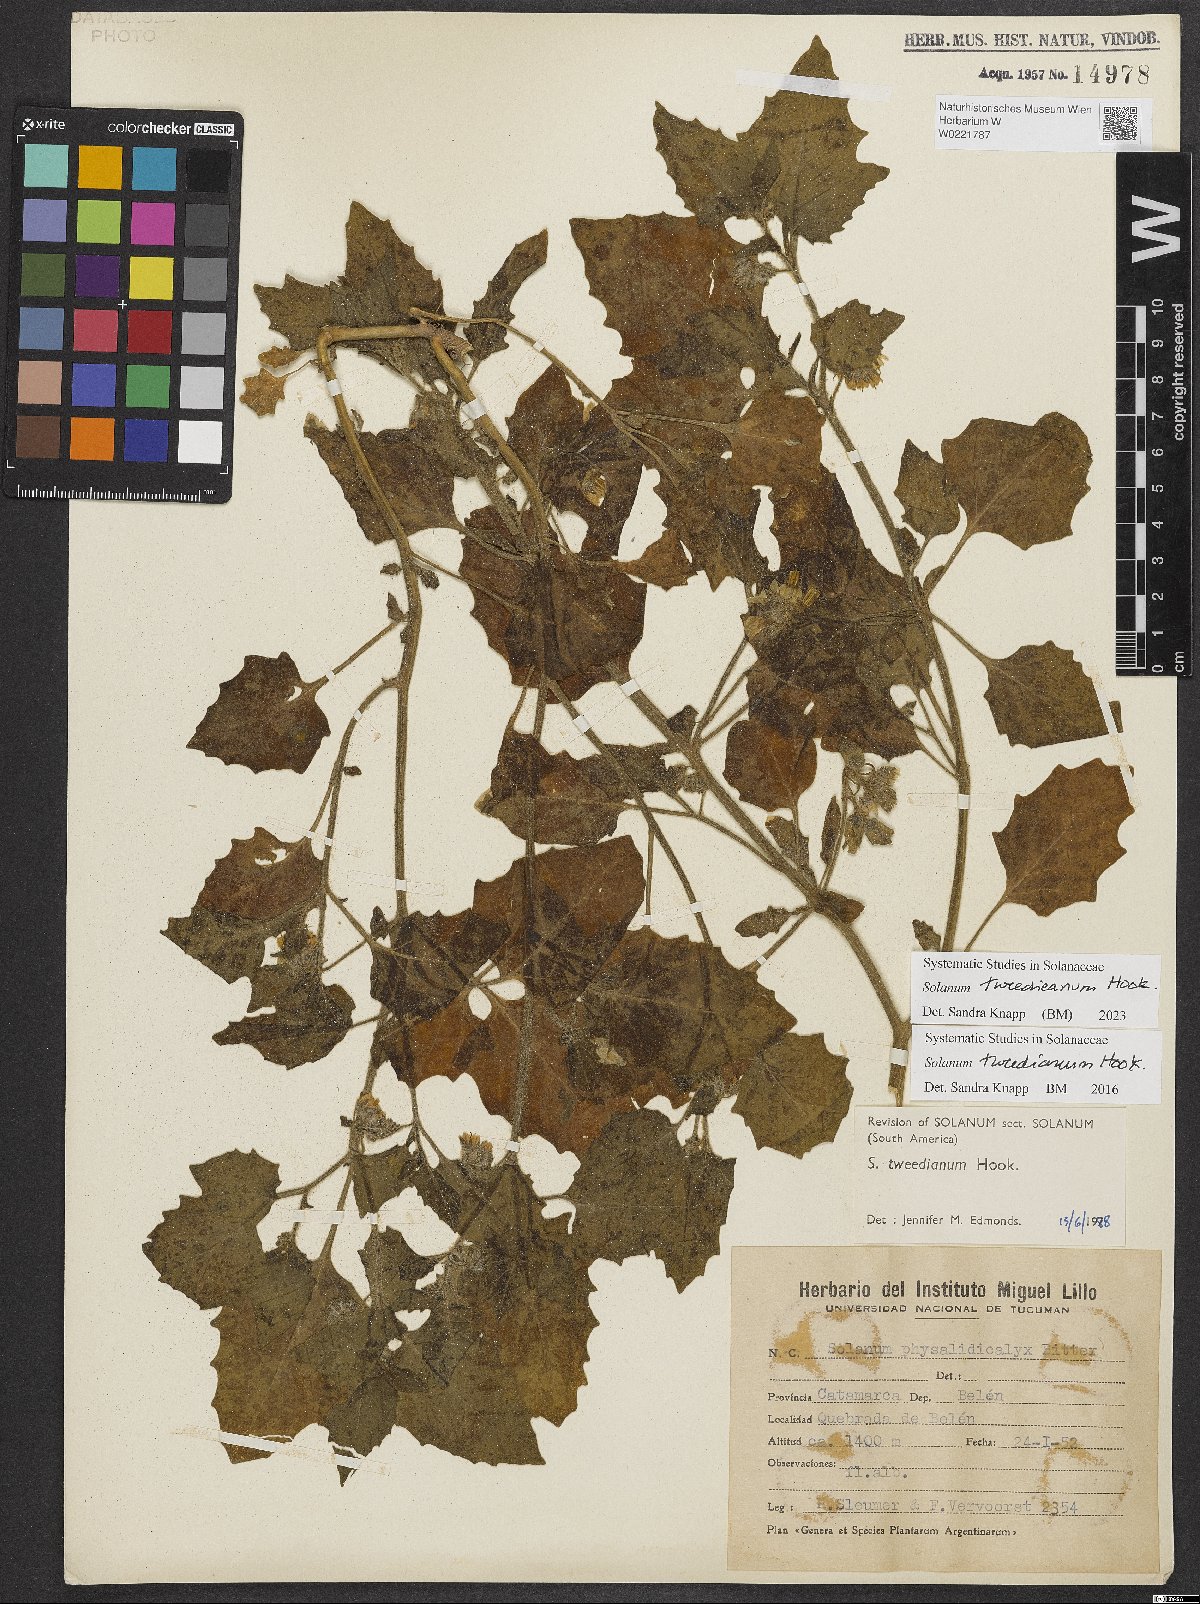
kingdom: Plantae
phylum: Tracheophyta
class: Magnoliopsida
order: Solanales
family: Solanaceae
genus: Solanum
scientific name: Solanum tweedieanum
